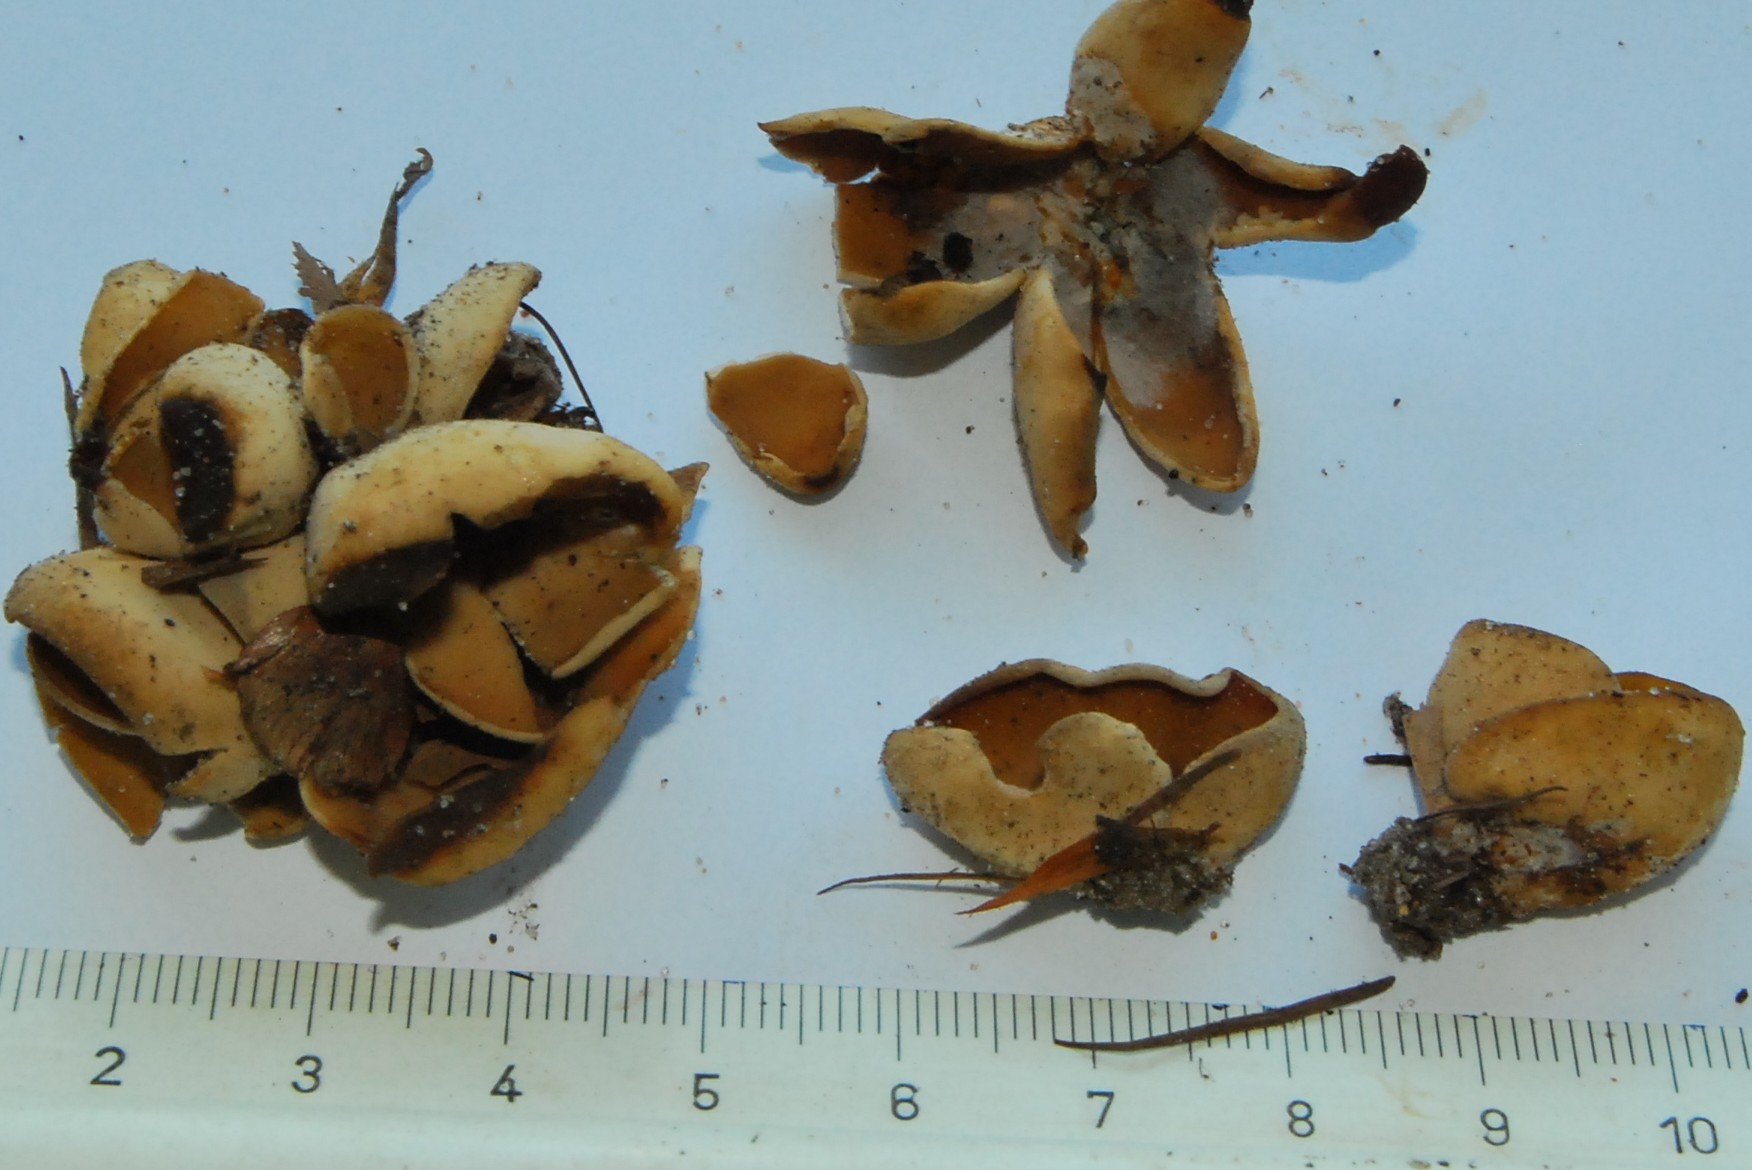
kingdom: Fungi
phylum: Ascomycota
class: Pezizomycetes
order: Pezizales
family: Otideaceae
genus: Otidea
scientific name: Otidea alutacea
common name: læder-ørebæger
